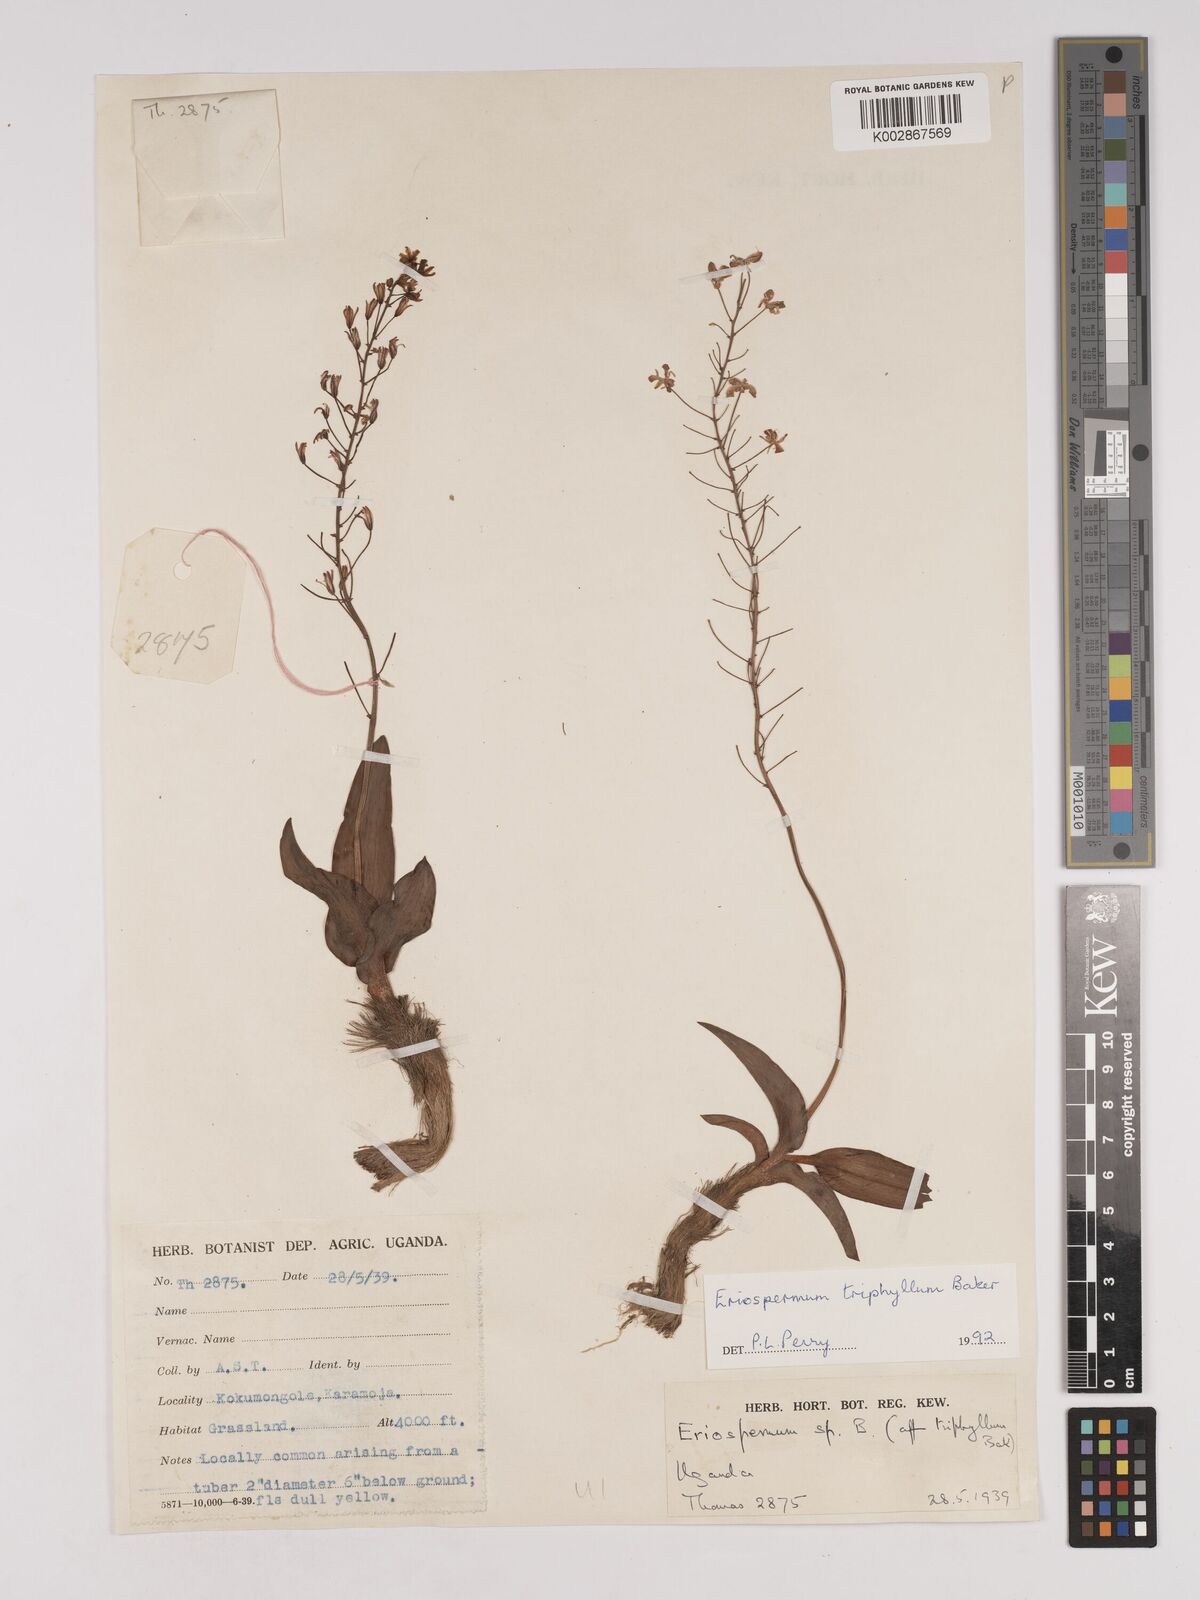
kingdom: Plantae
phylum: Tracheophyta
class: Liliopsida
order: Asparagales
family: Asparagaceae
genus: Eriospermum
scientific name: Eriospermum triphyllum
